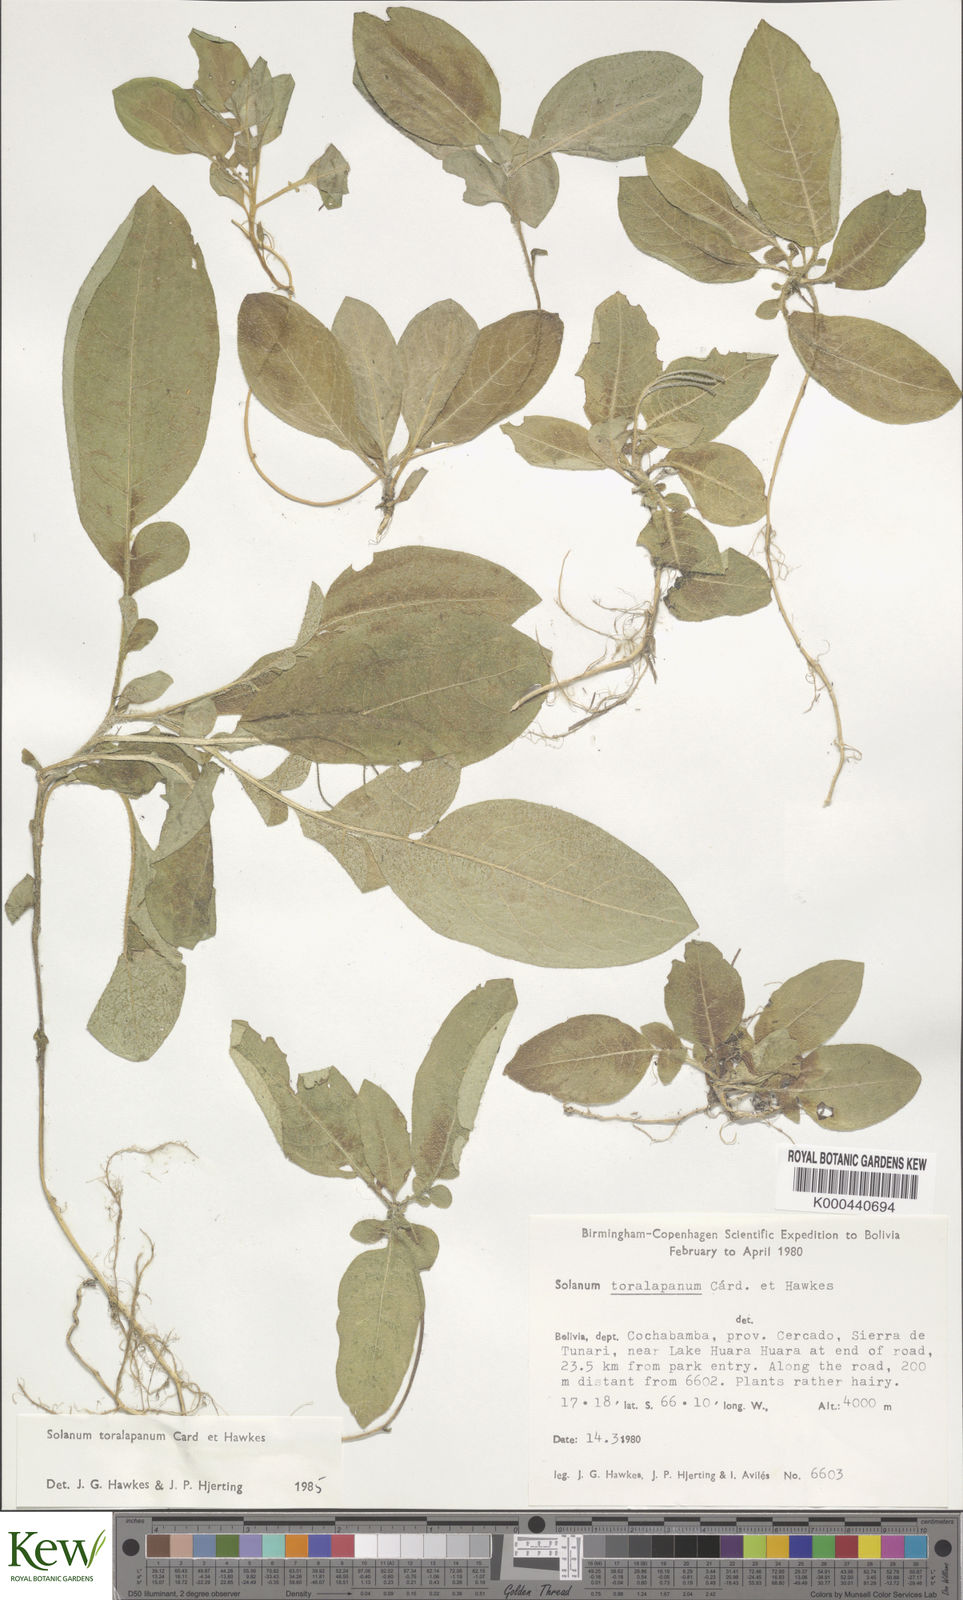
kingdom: Plantae
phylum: Tracheophyta
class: Magnoliopsida
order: Solanales
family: Solanaceae
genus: Solanum
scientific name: Solanum boliviense
